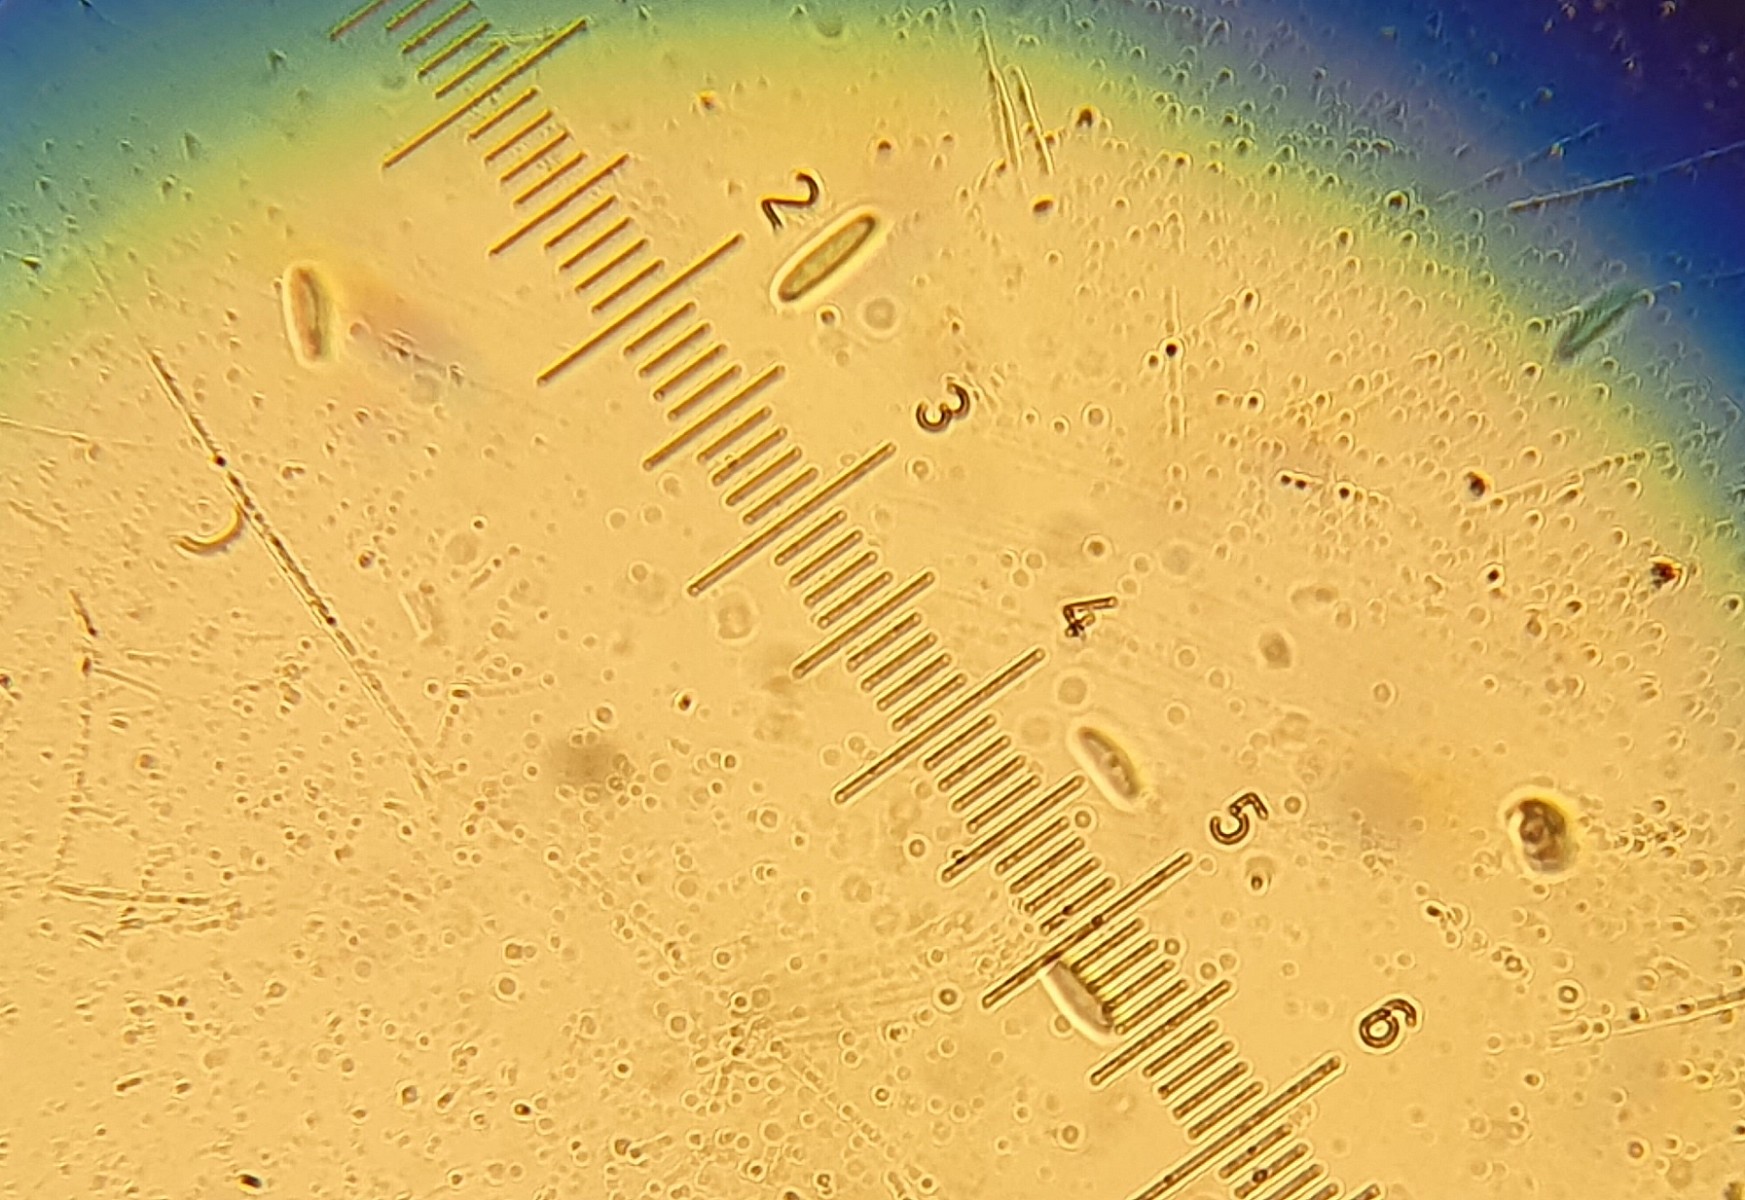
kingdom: Fungi
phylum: Ascomycota
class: Leotiomycetes
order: Helotiales
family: Lachnaceae
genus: Lachnum
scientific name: Lachnum
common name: frynseskive
